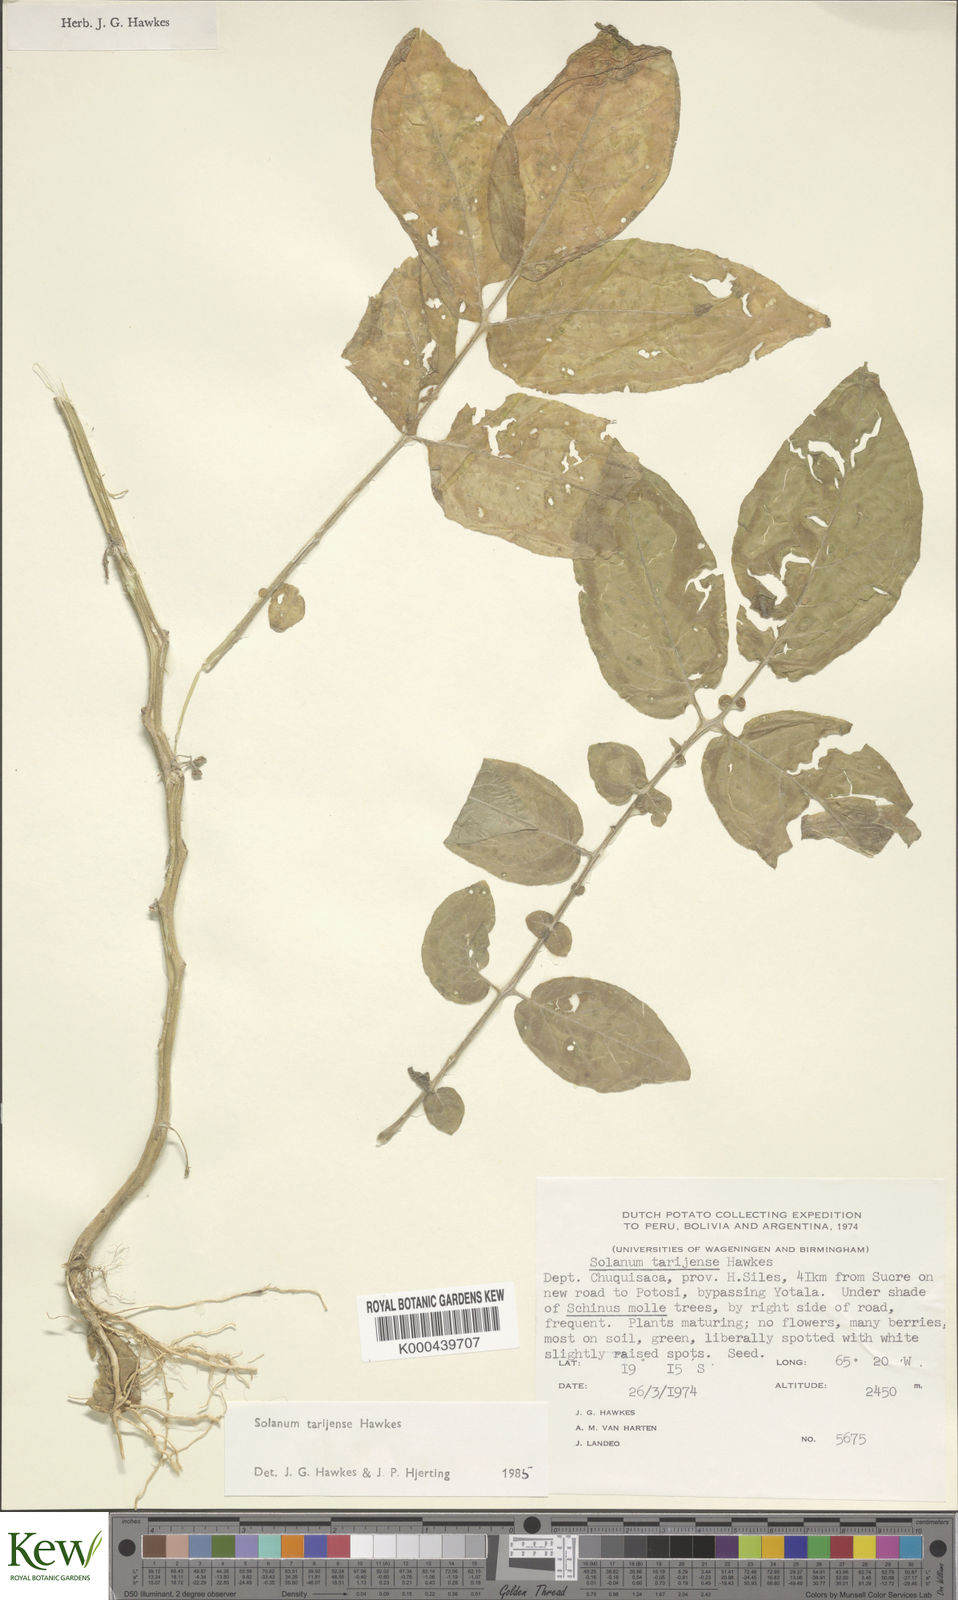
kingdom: Plantae
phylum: Tracheophyta
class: Magnoliopsida
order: Solanales
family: Solanaceae
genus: Solanum
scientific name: Solanum tarijense
